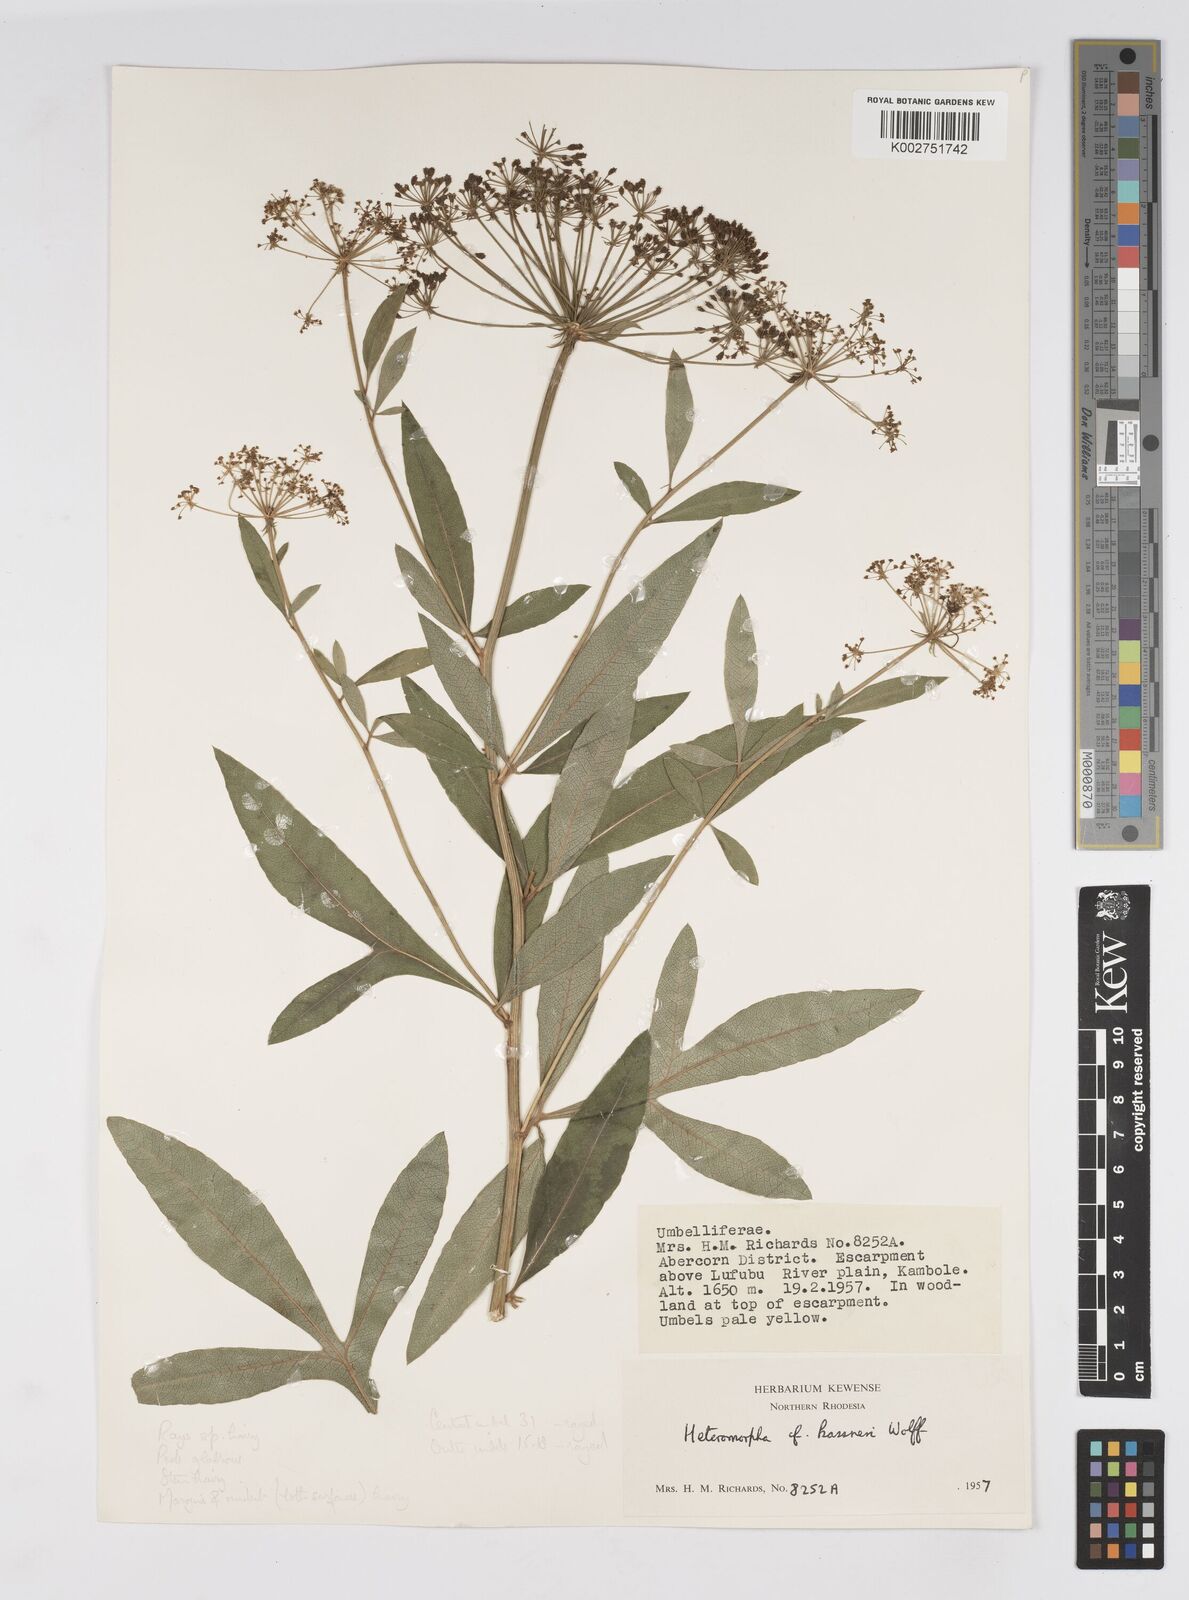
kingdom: Plantae
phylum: Tracheophyta
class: Magnoliopsida
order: Apiales
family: Apiaceae
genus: Heteromorpha
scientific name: Heteromorpha involucrata
